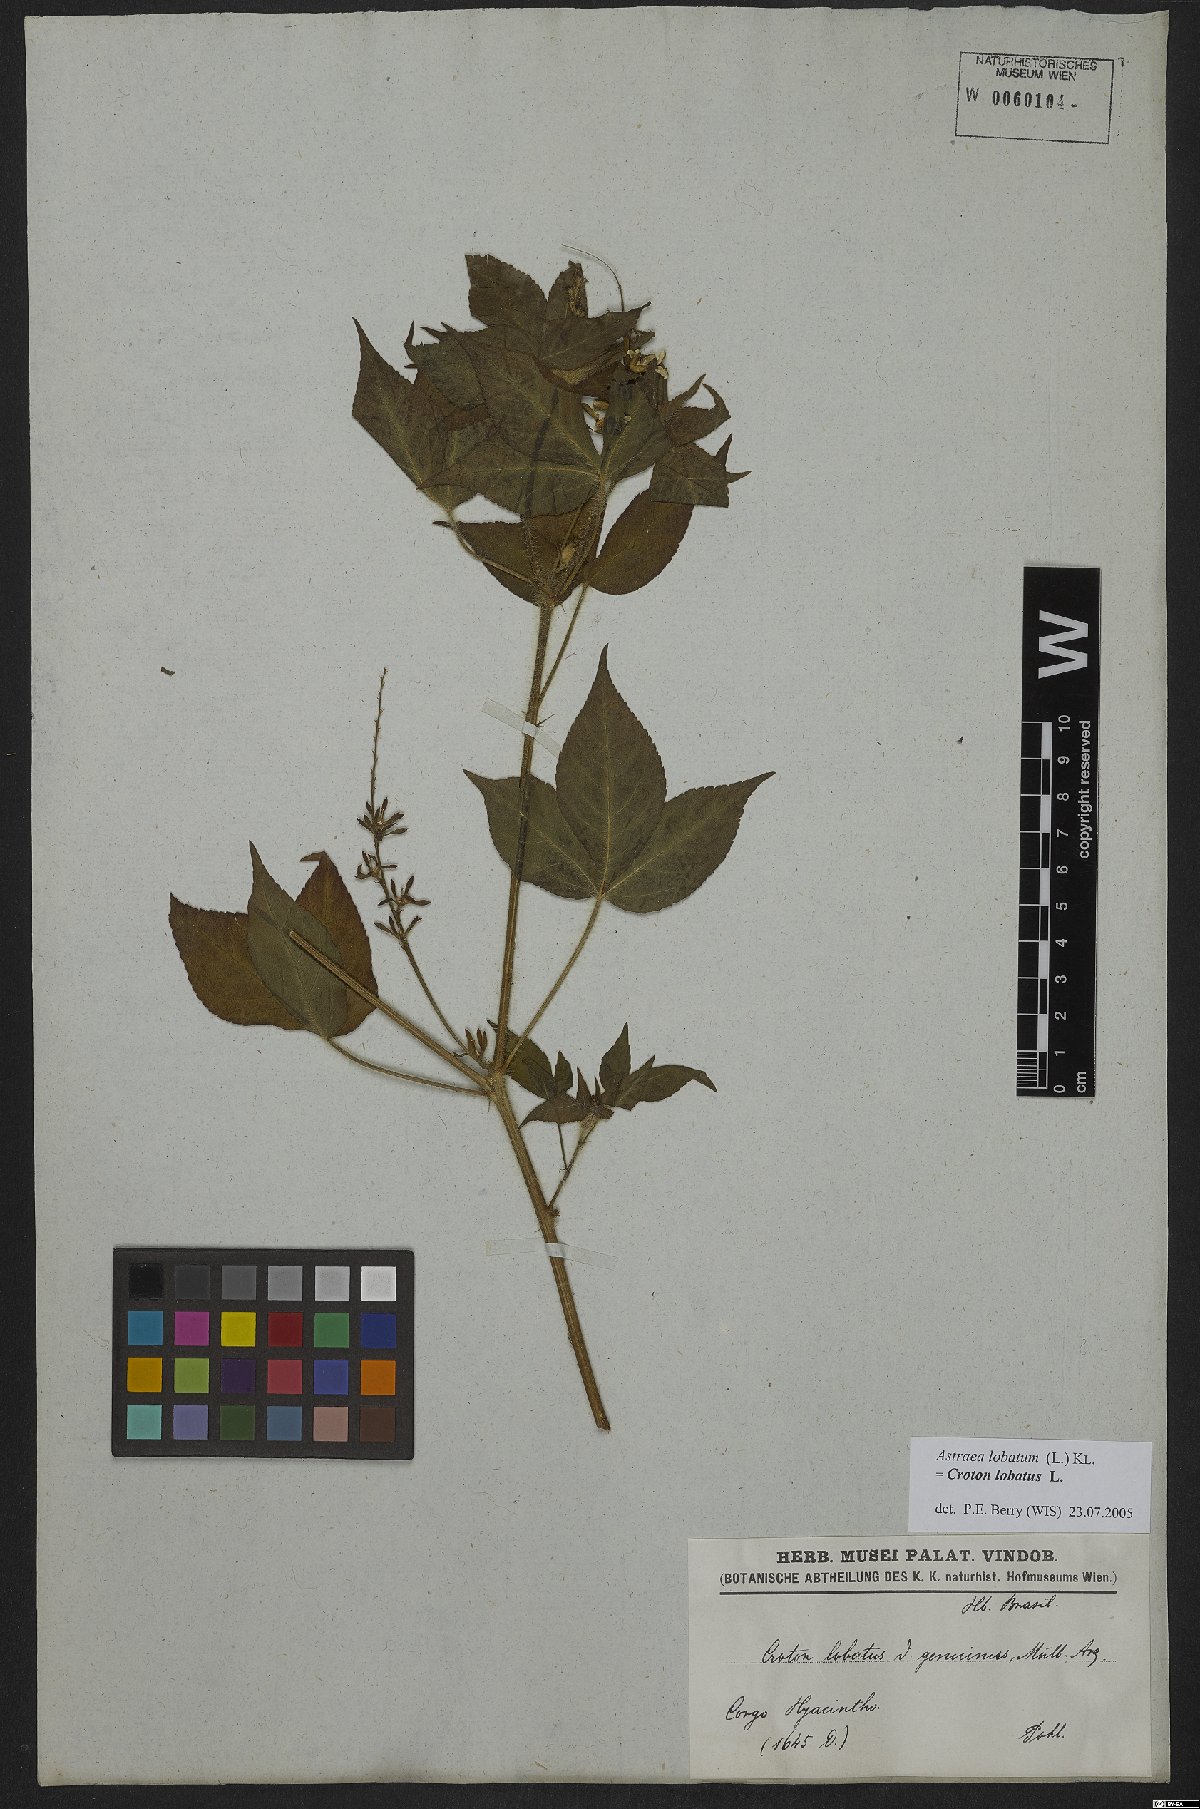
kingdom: Plantae
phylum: Tracheophyta
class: Magnoliopsida
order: Malpighiales
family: Euphorbiaceae
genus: Croton
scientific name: Croton lobatus
